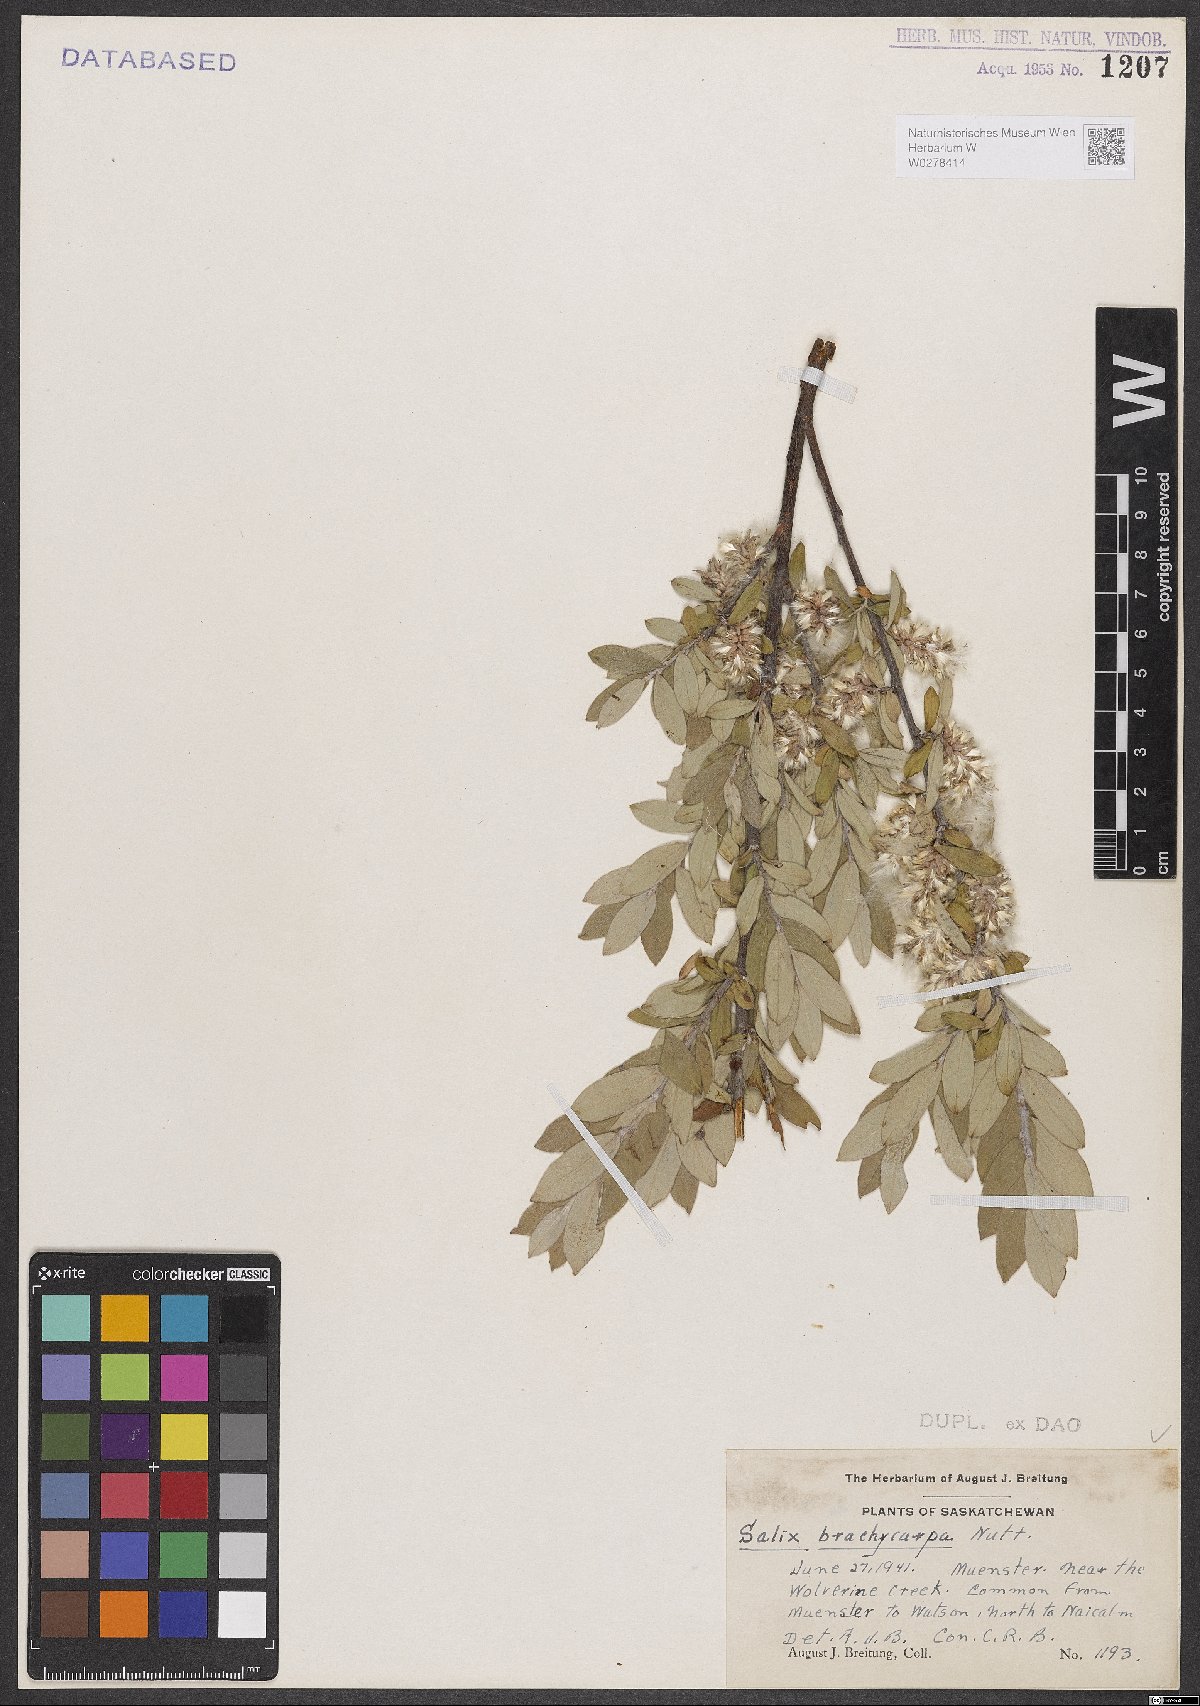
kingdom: Plantae
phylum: Tracheophyta
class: Magnoliopsida
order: Malpighiales
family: Salicaceae
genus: Salix
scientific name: Salix brachycarpa
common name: Barren-ground willow
